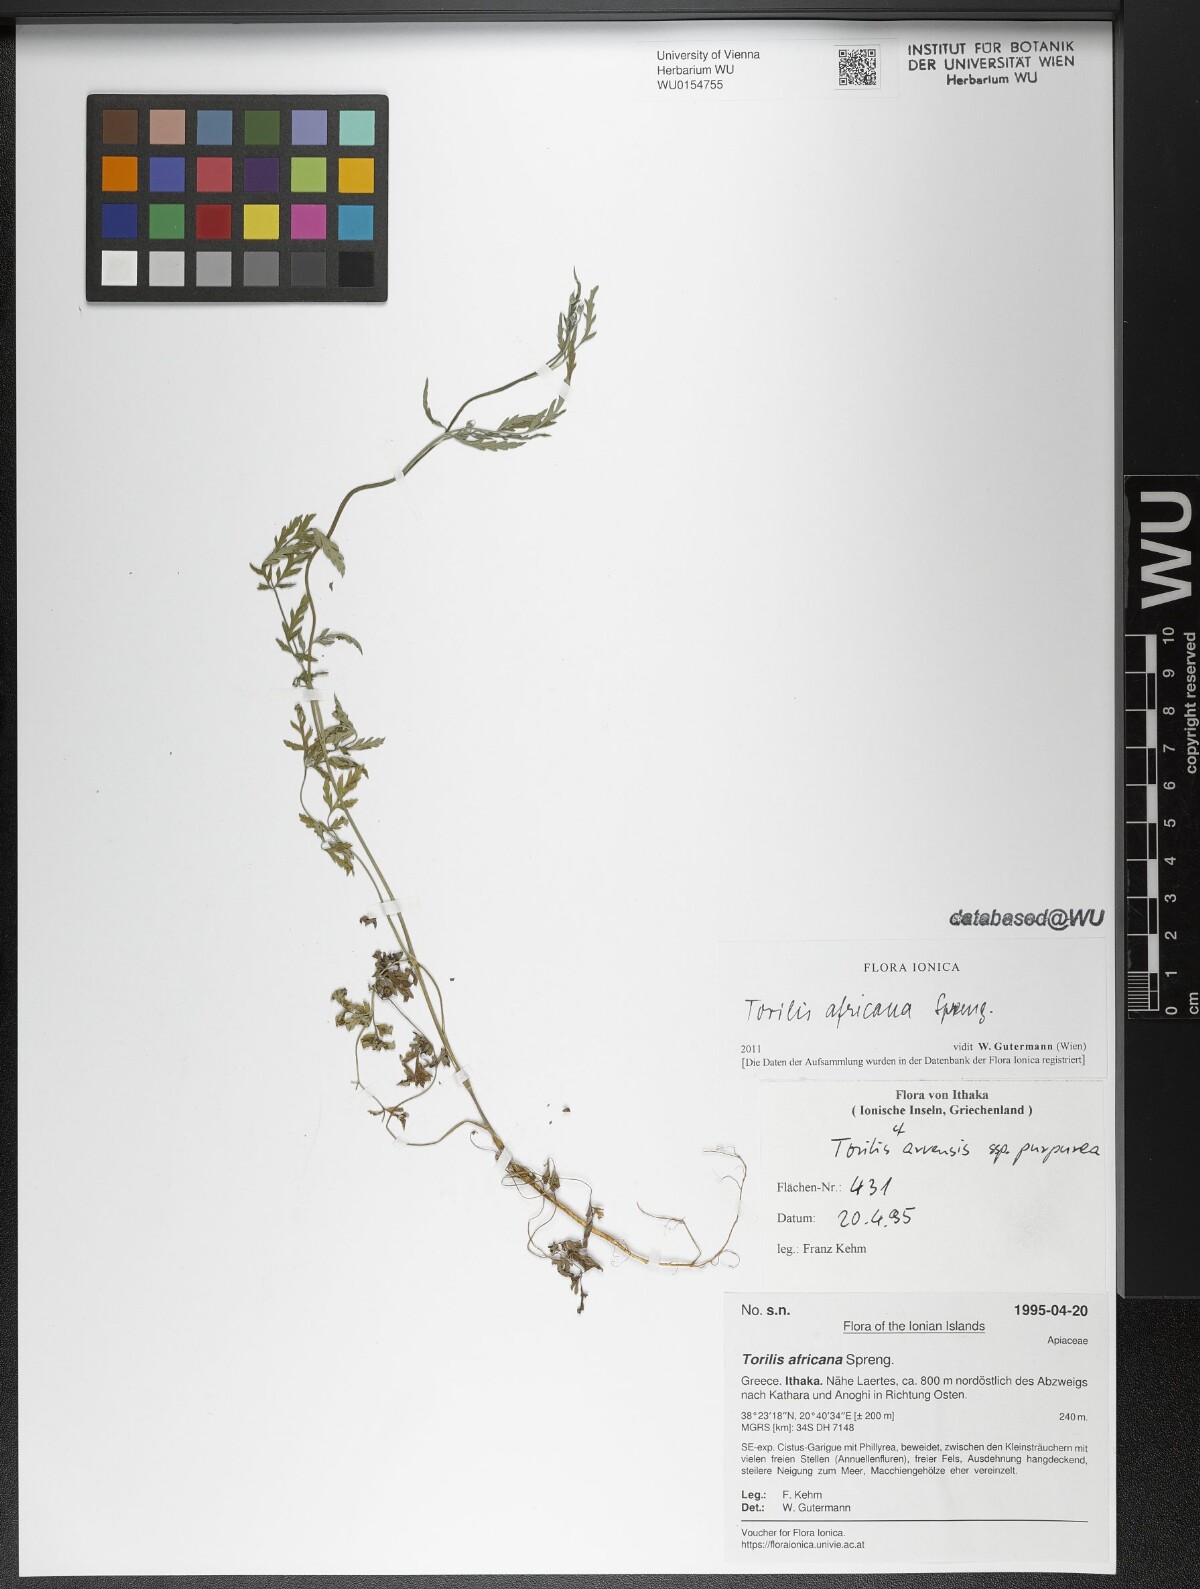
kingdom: Plantae
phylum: Tracheophyta
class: Magnoliopsida
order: Apiales
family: Apiaceae
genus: Torilis
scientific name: Torilis africana
